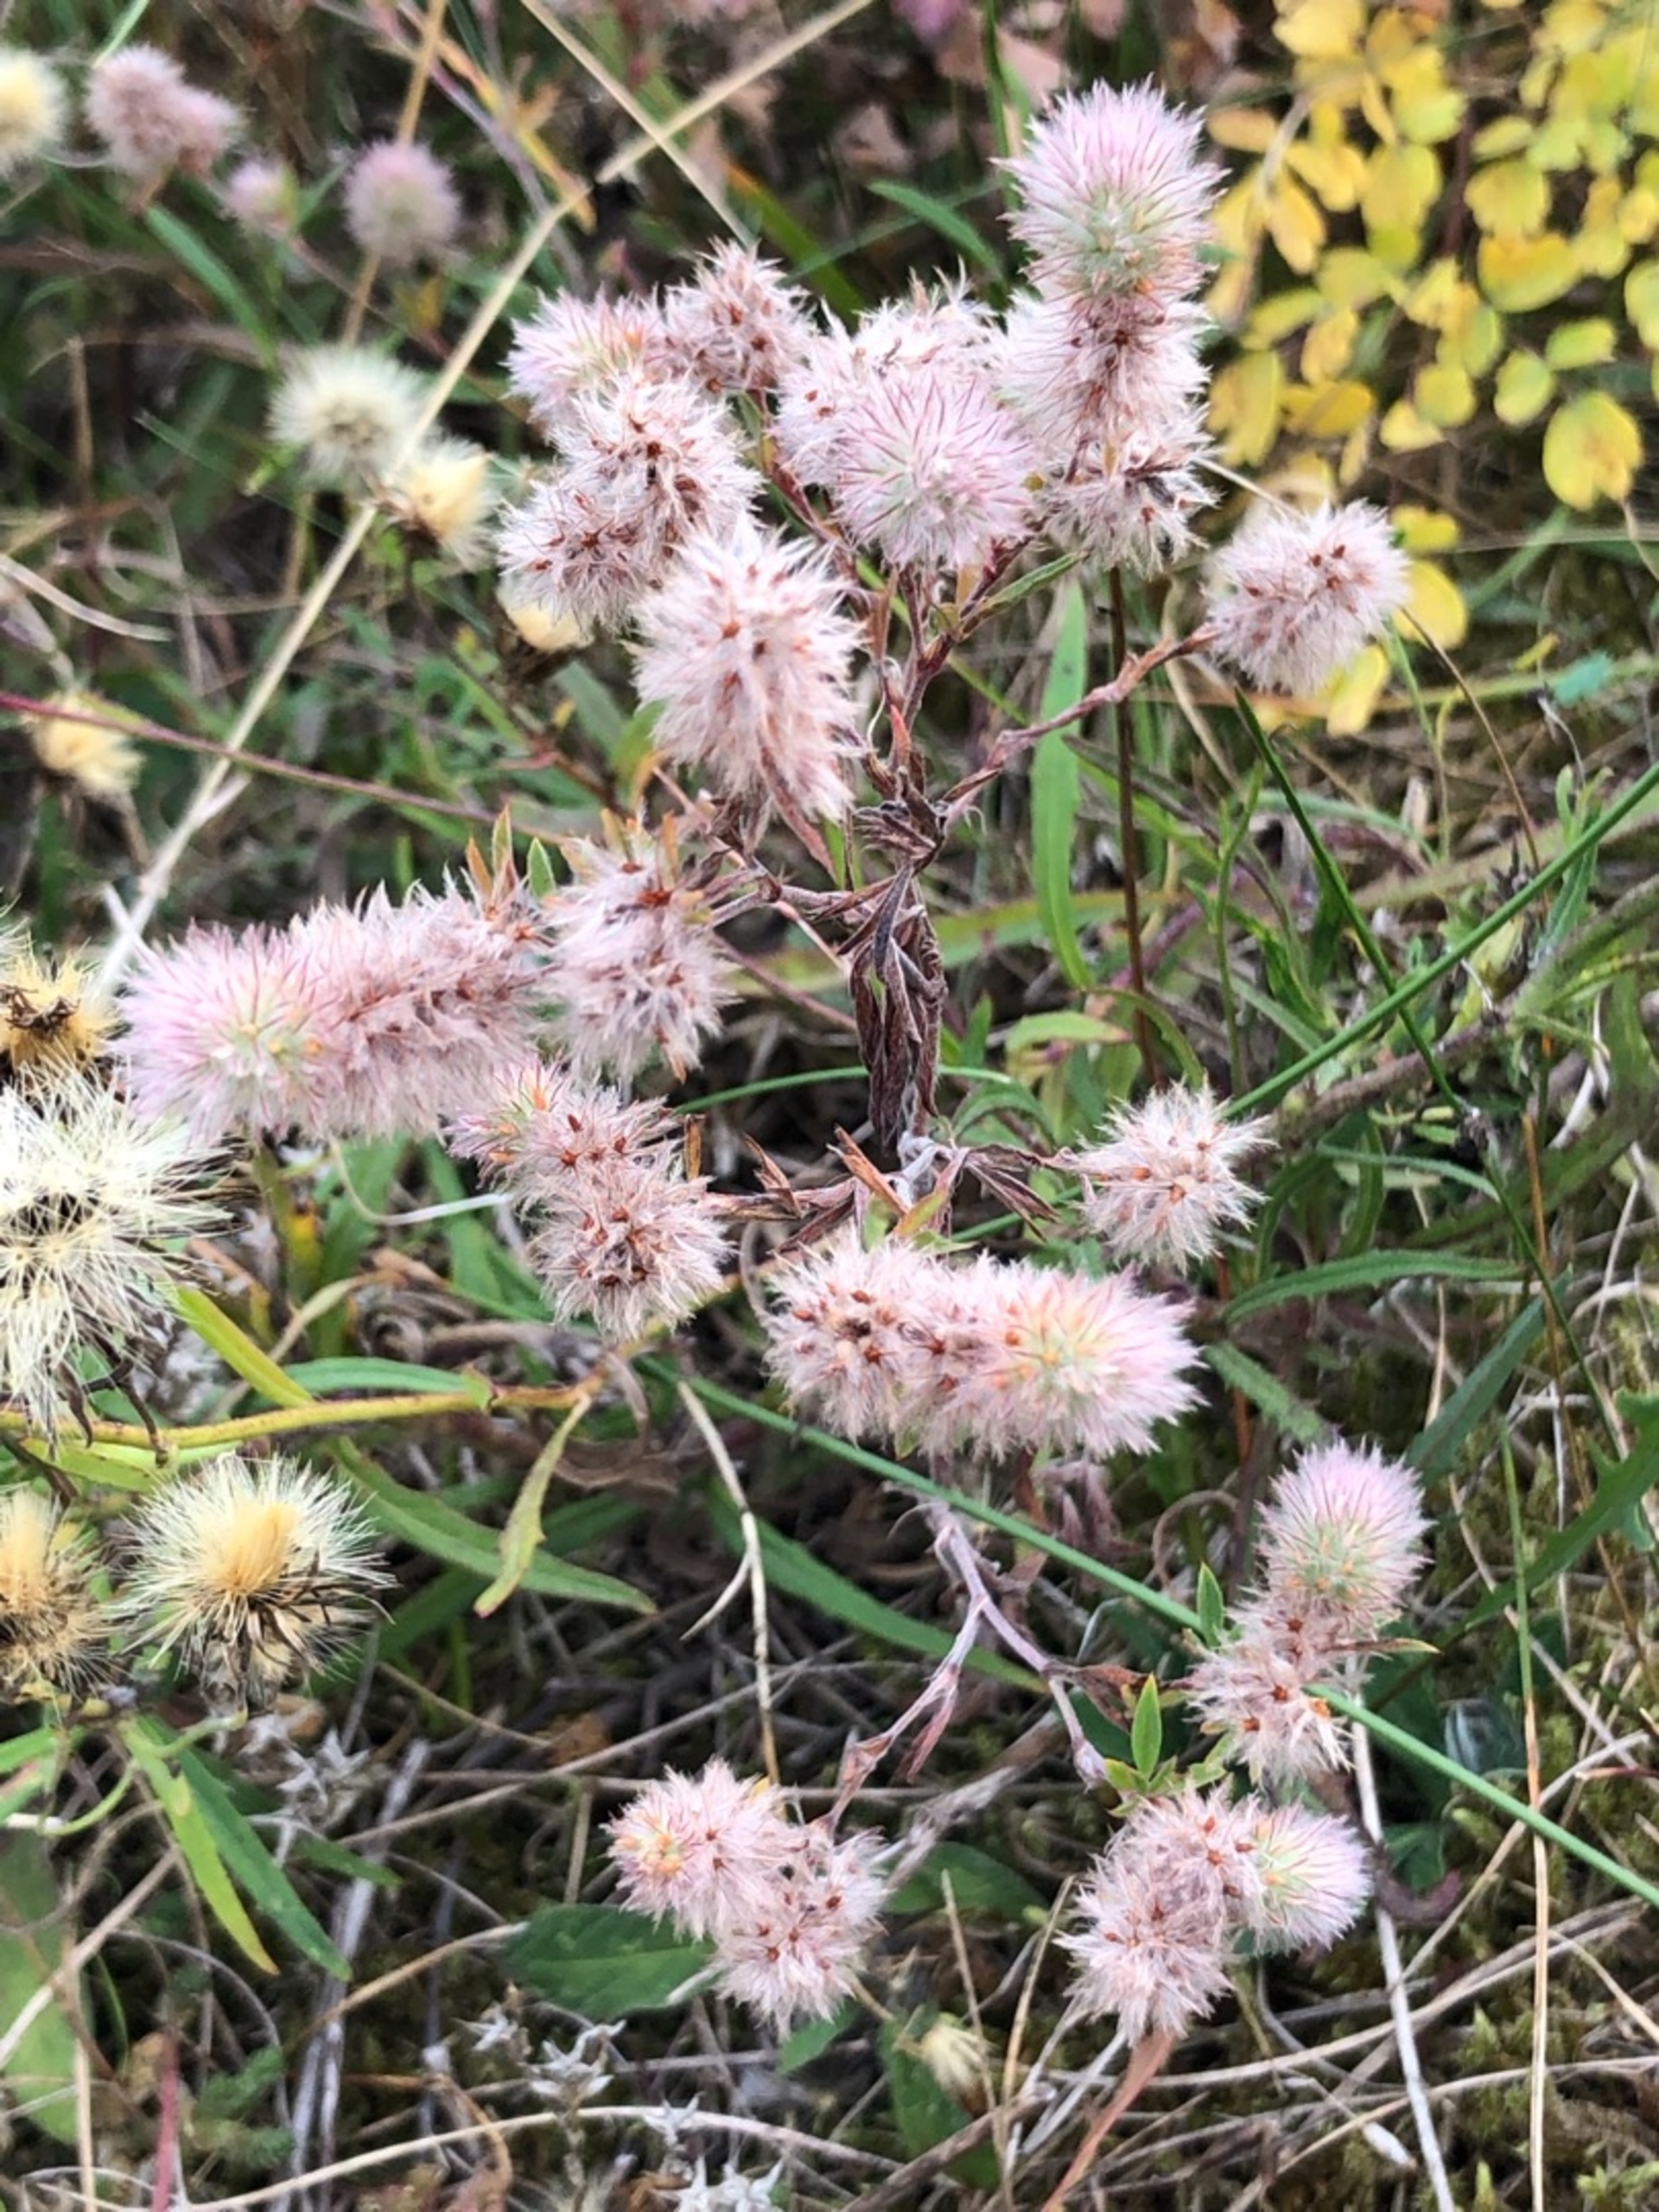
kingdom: Plantae
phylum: Tracheophyta
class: Magnoliopsida
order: Fabales
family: Fabaceae
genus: Trifolium
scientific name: Trifolium arvense
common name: Hare-kløver
